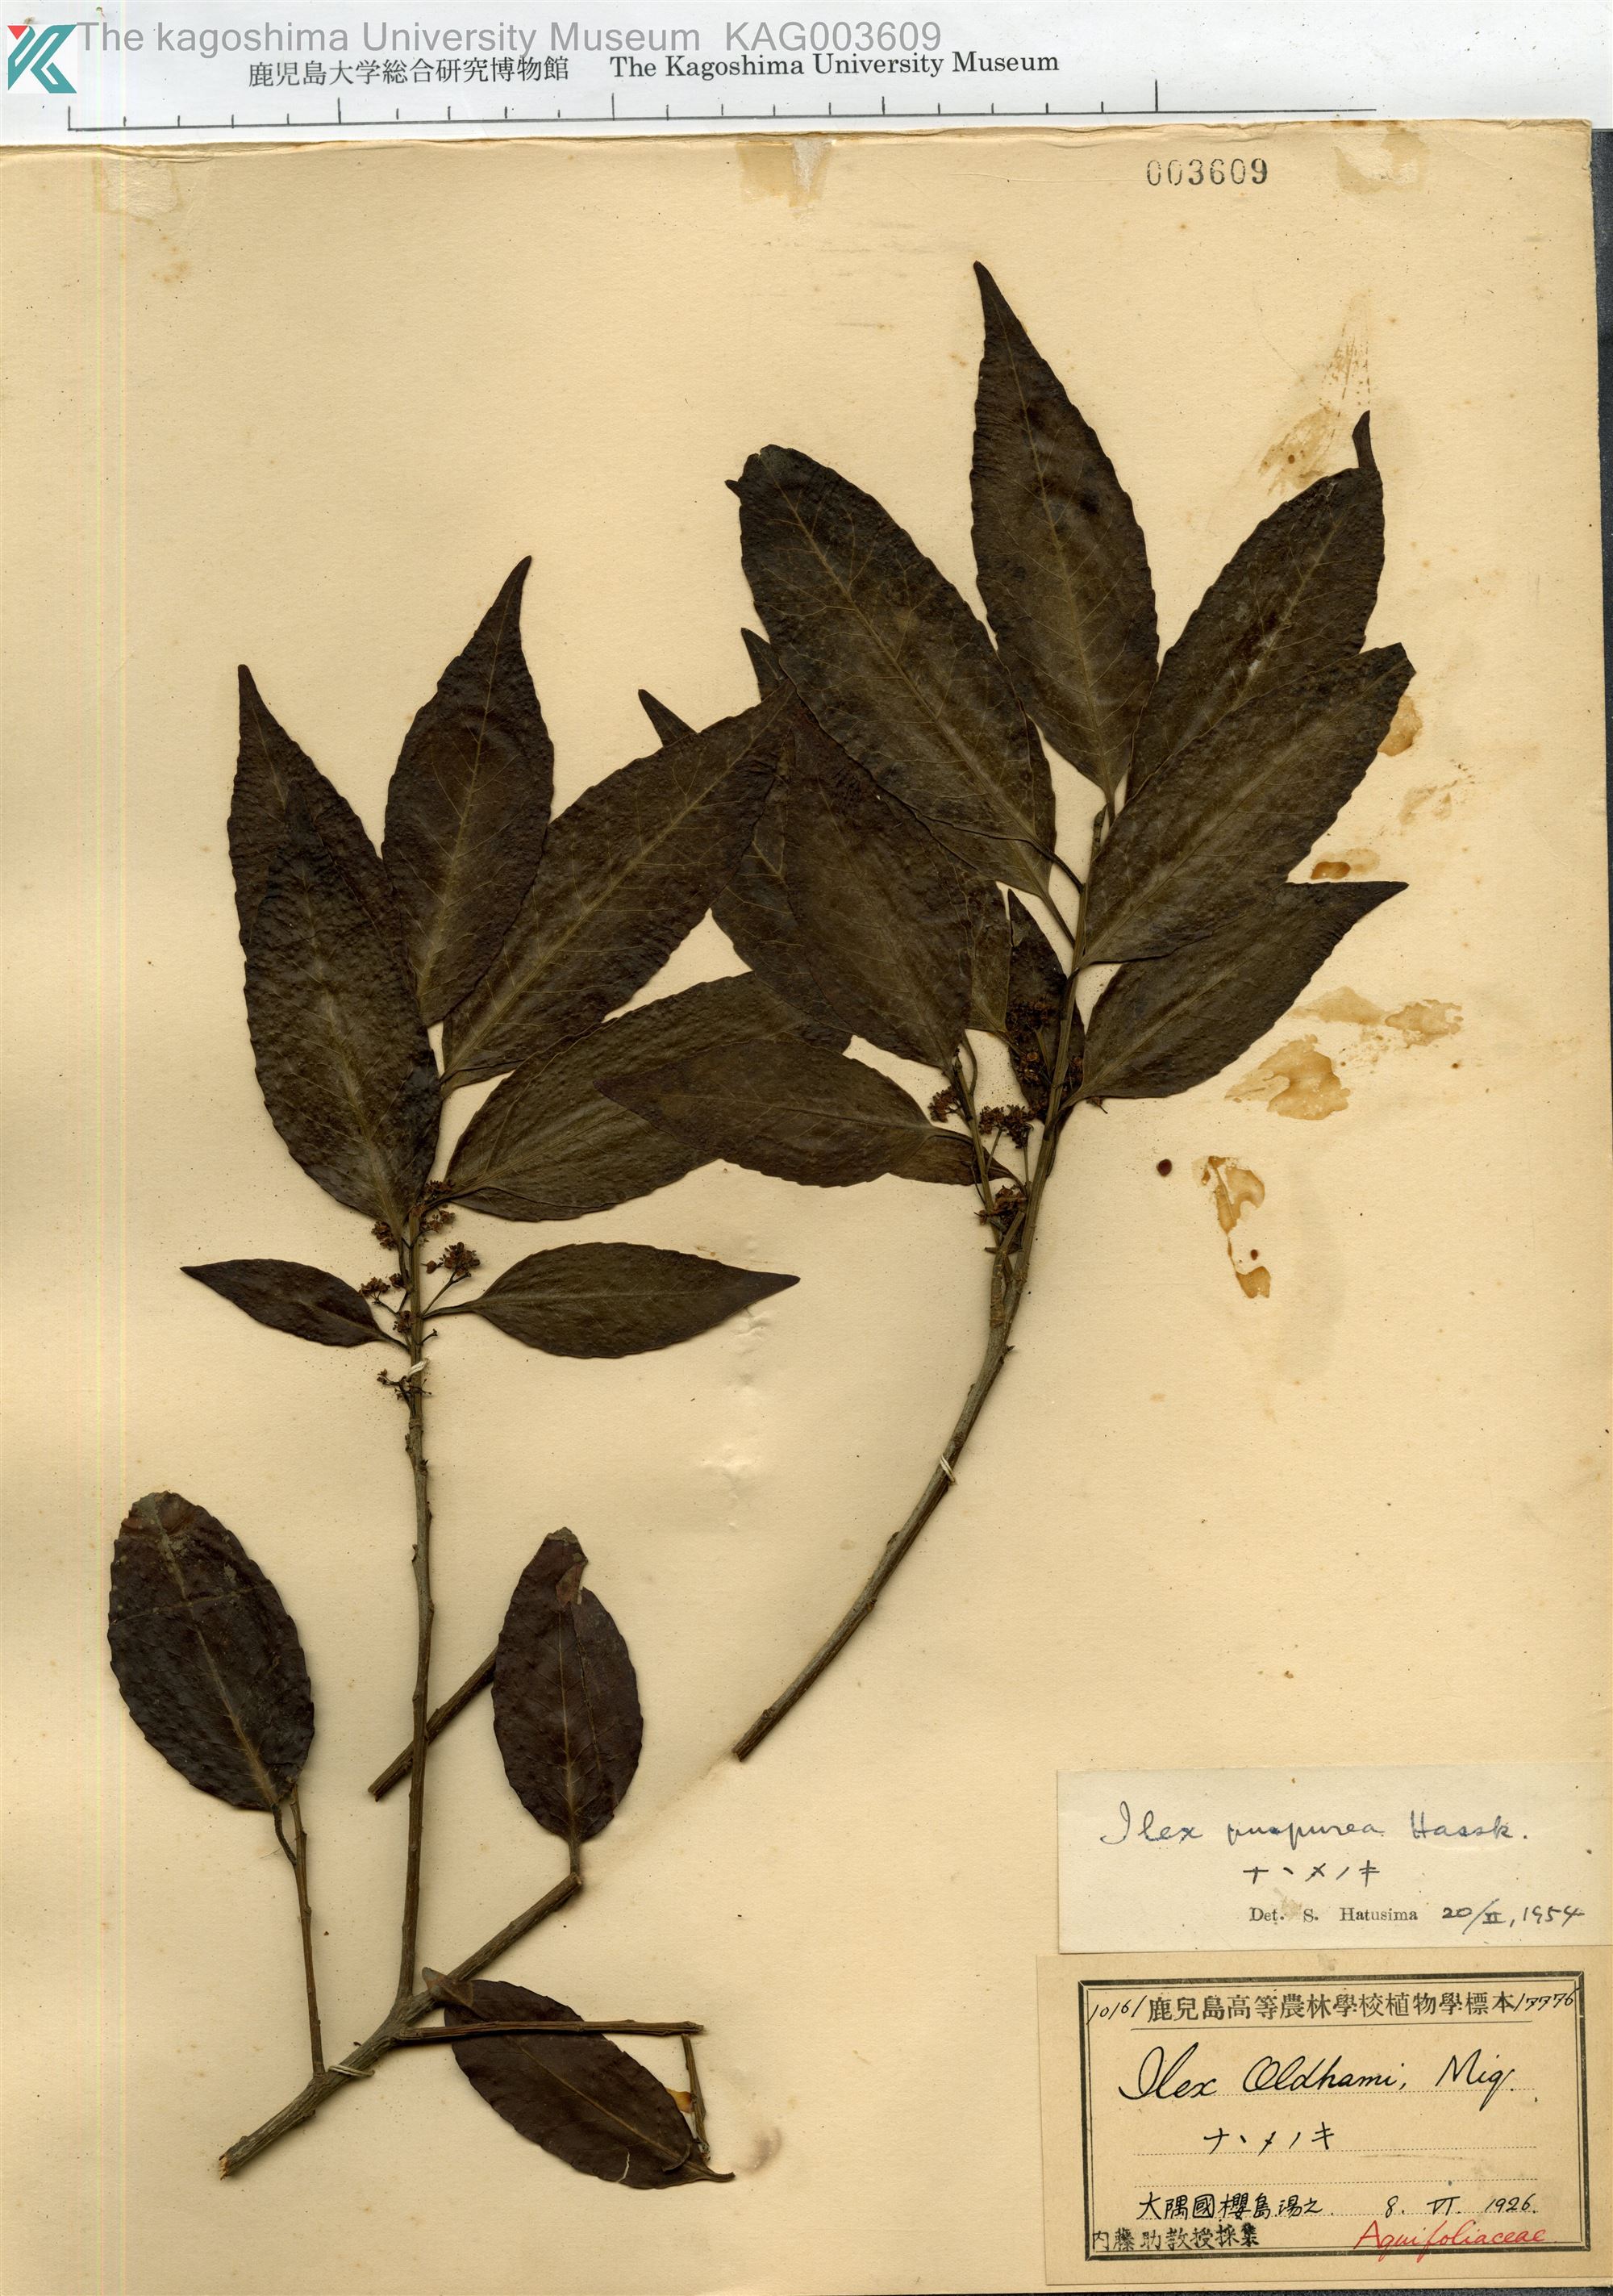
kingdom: Plantae
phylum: Tracheophyta
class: Magnoliopsida
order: Aquifoliales
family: Aquifoliaceae
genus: Ilex
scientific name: Ilex chinensis
